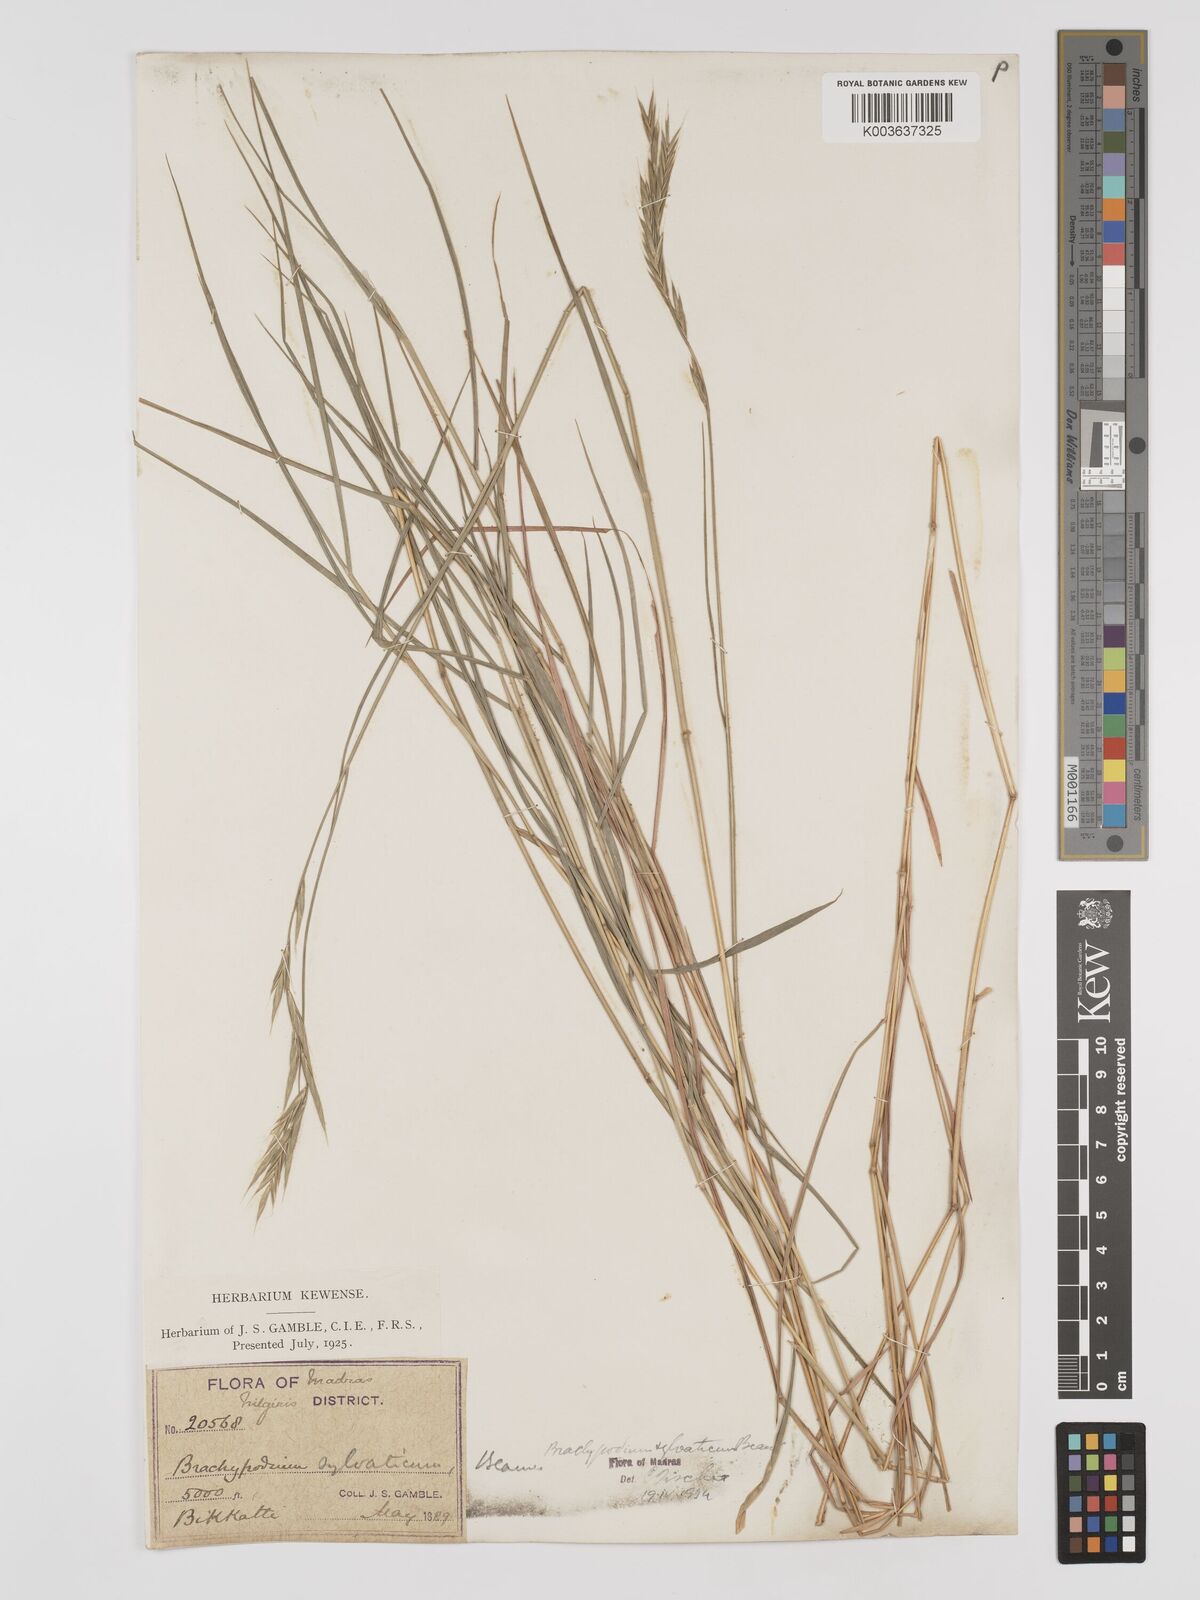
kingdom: Plantae
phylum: Tracheophyta
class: Liliopsida
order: Poales
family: Poaceae
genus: Brachypodium
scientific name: Brachypodium sylvaticum
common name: False-brome
